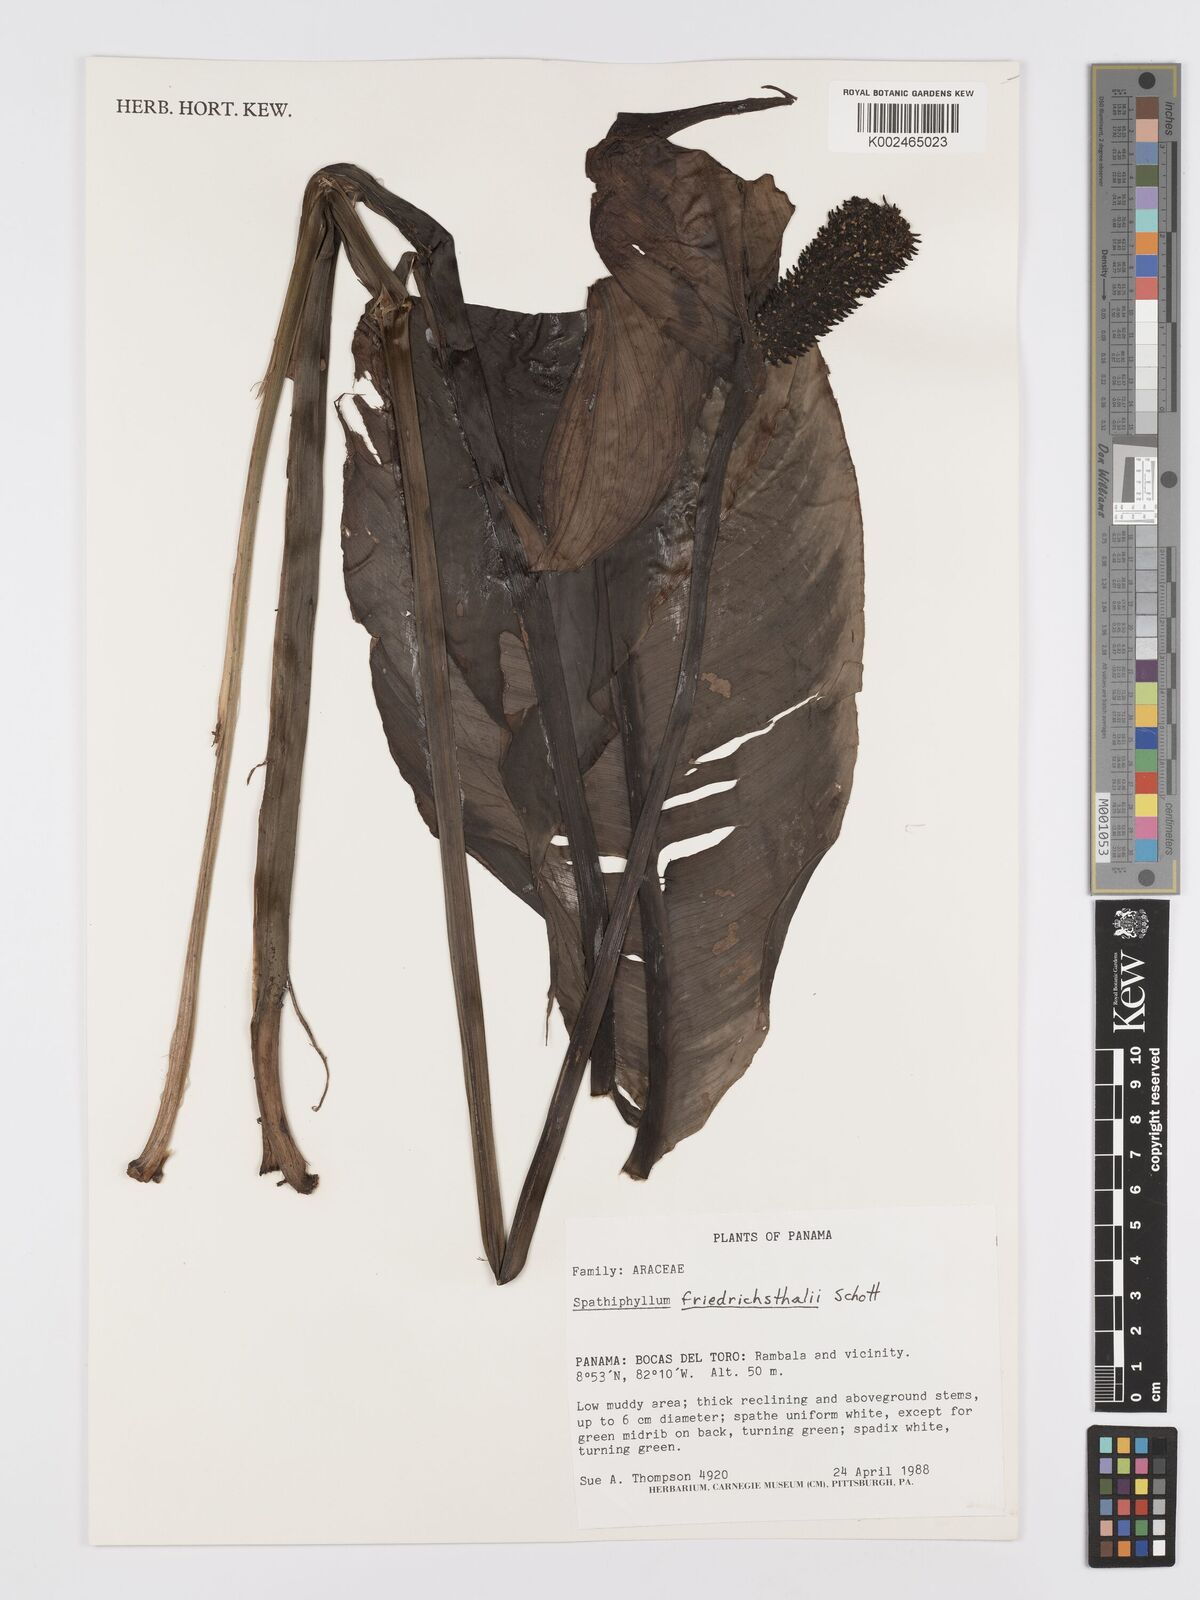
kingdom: Plantae
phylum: Tracheophyta
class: Liliopsida
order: Alismatales
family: Araceae
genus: Spathiphyllum
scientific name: Spathiphyllum friedrichsthalii
